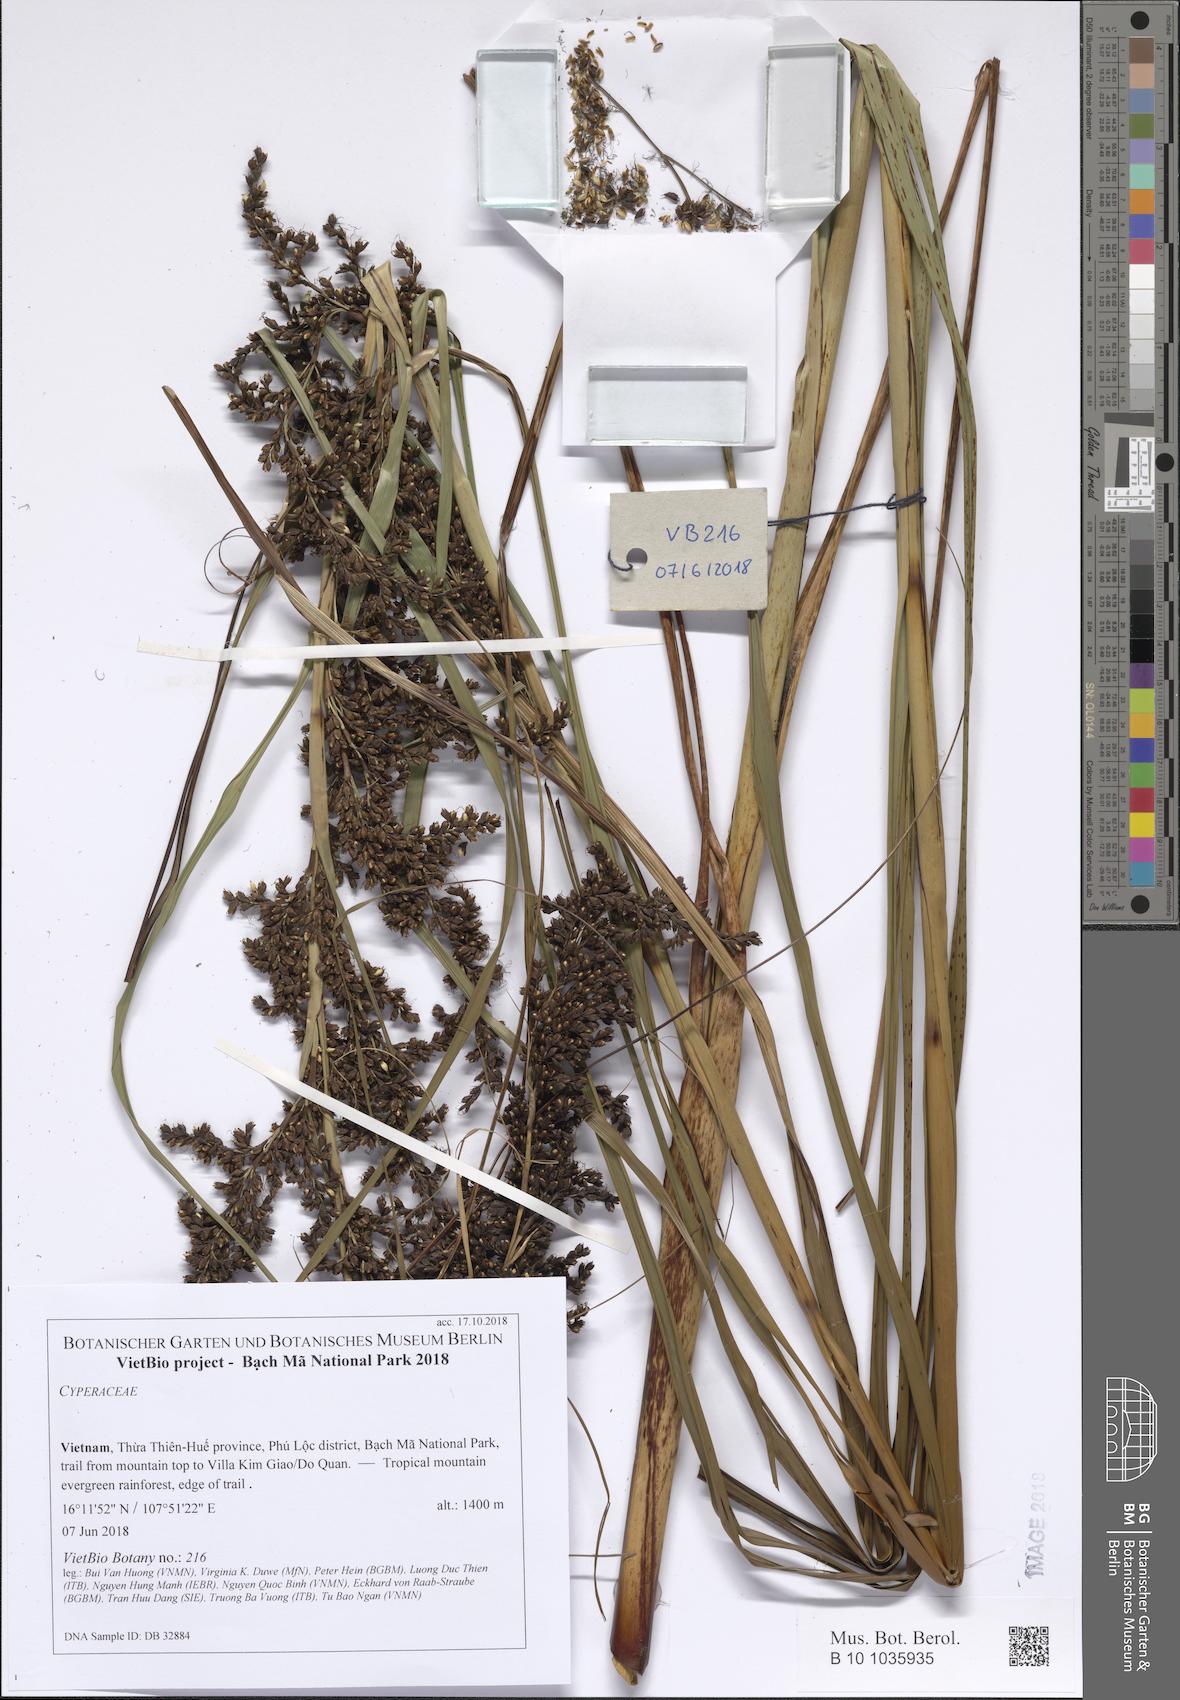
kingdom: Plantae
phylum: Tracheophyta
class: Liliopsida
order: Poales
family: Cyperaceae
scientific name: Cyperaceae
